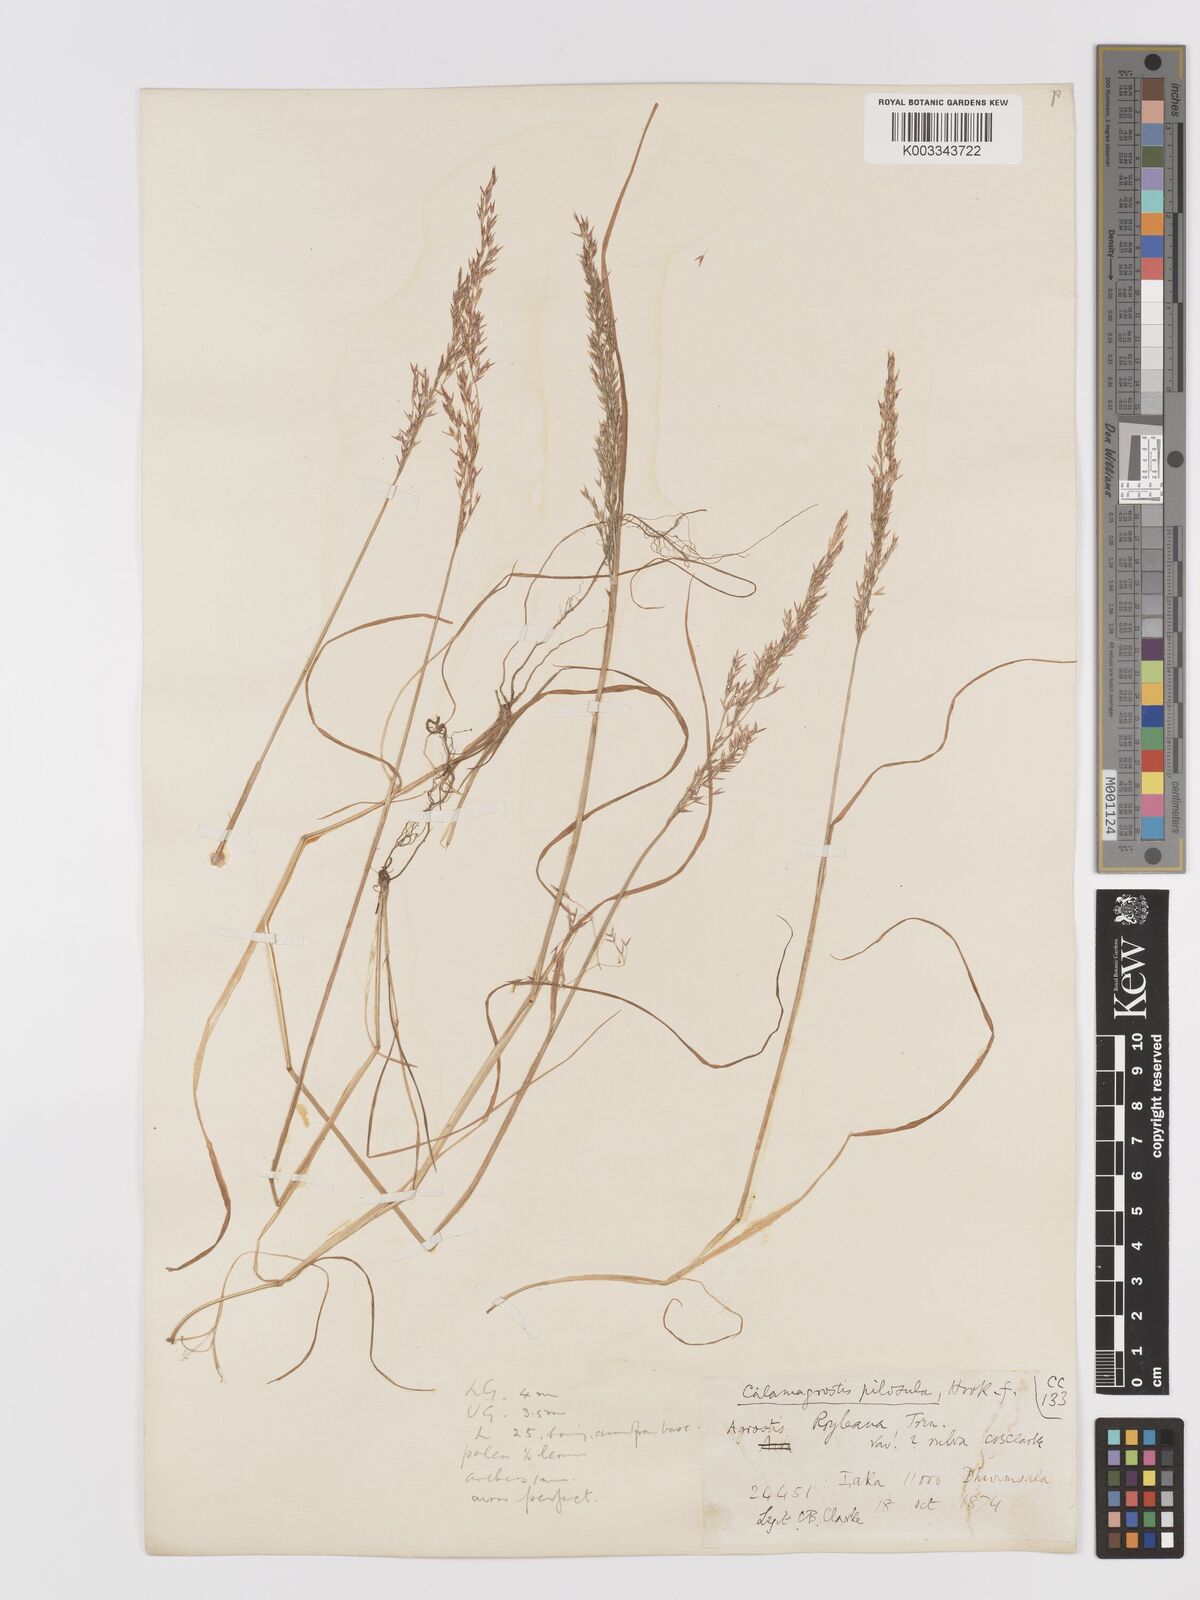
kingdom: Plantae
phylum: Tracheophyta
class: Liliopsida
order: Poales
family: Poaceae
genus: Agrostis
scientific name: Agrostis pilosula
